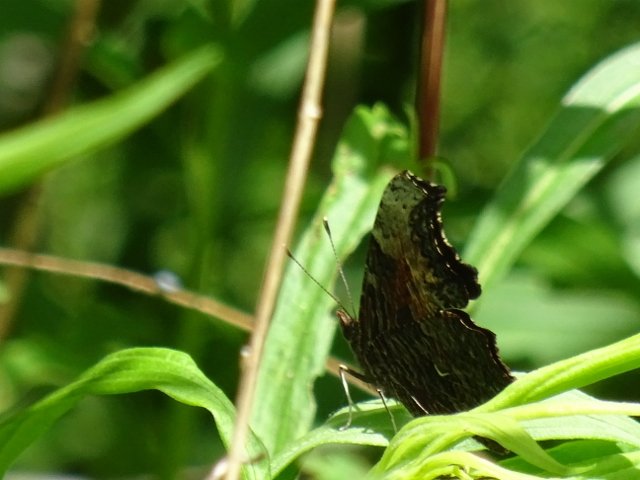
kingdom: Animalia
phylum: Arthropoda
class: Insecta
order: Lepidoptera
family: Nymphalidae
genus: Polygonia
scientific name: Polygonia progne
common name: Gray Comma
